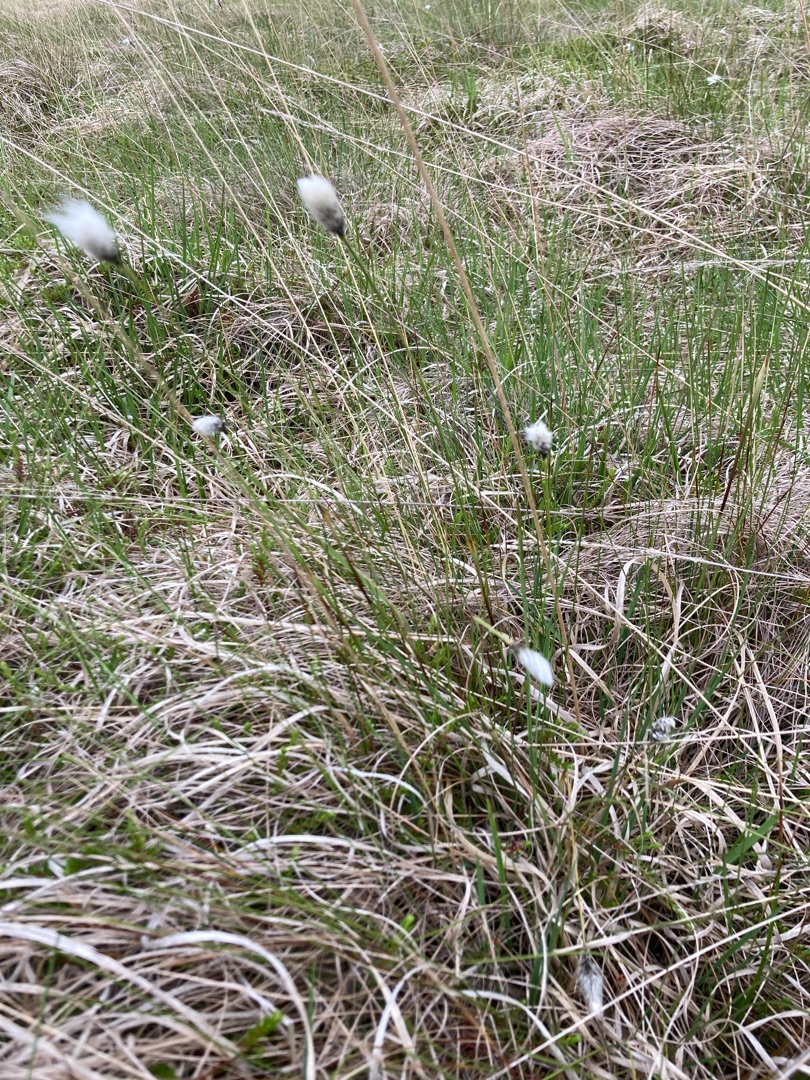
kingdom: Plantae
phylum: Tracheophyta
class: Liliopsida
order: Poales
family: Cyperaceae
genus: Eriophorum
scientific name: Eriophorum vaginatum
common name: Tue-kæruld
